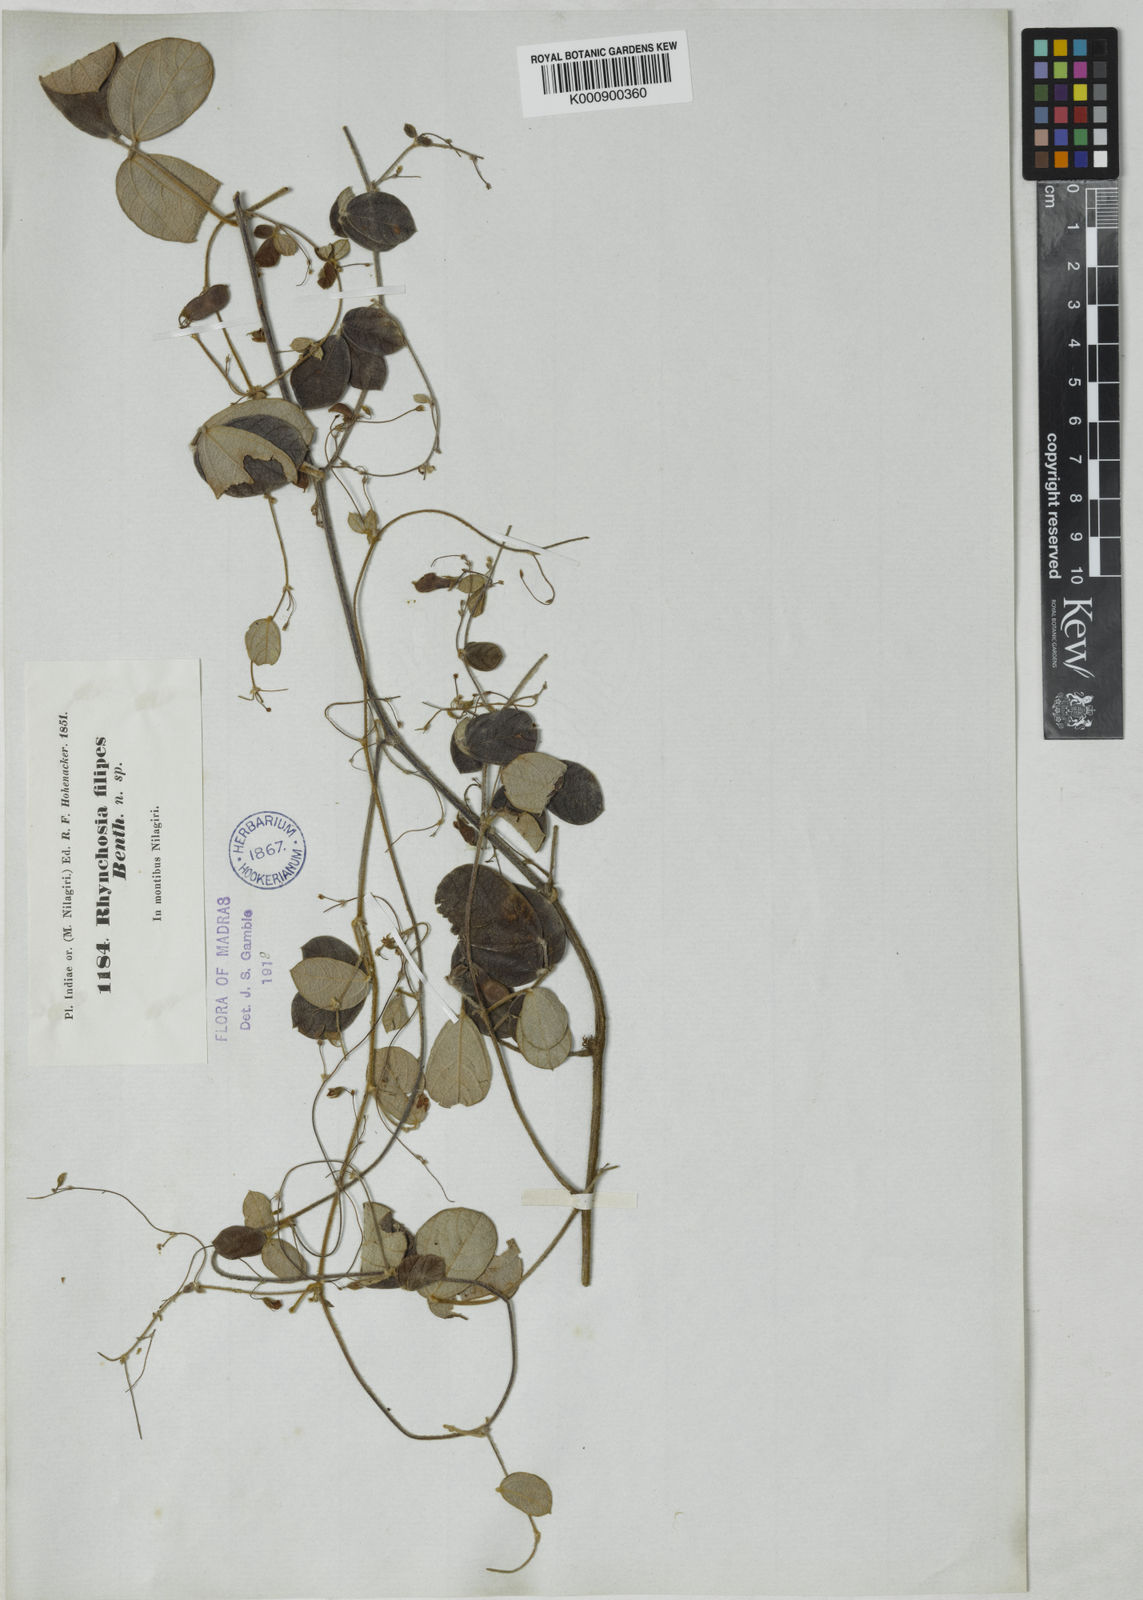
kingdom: Plantae
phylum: Tracheophyta
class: Magnoliopsida
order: Fabales
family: Fabaceae
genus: Rhynchosia
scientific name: Rhynchosia filipes
